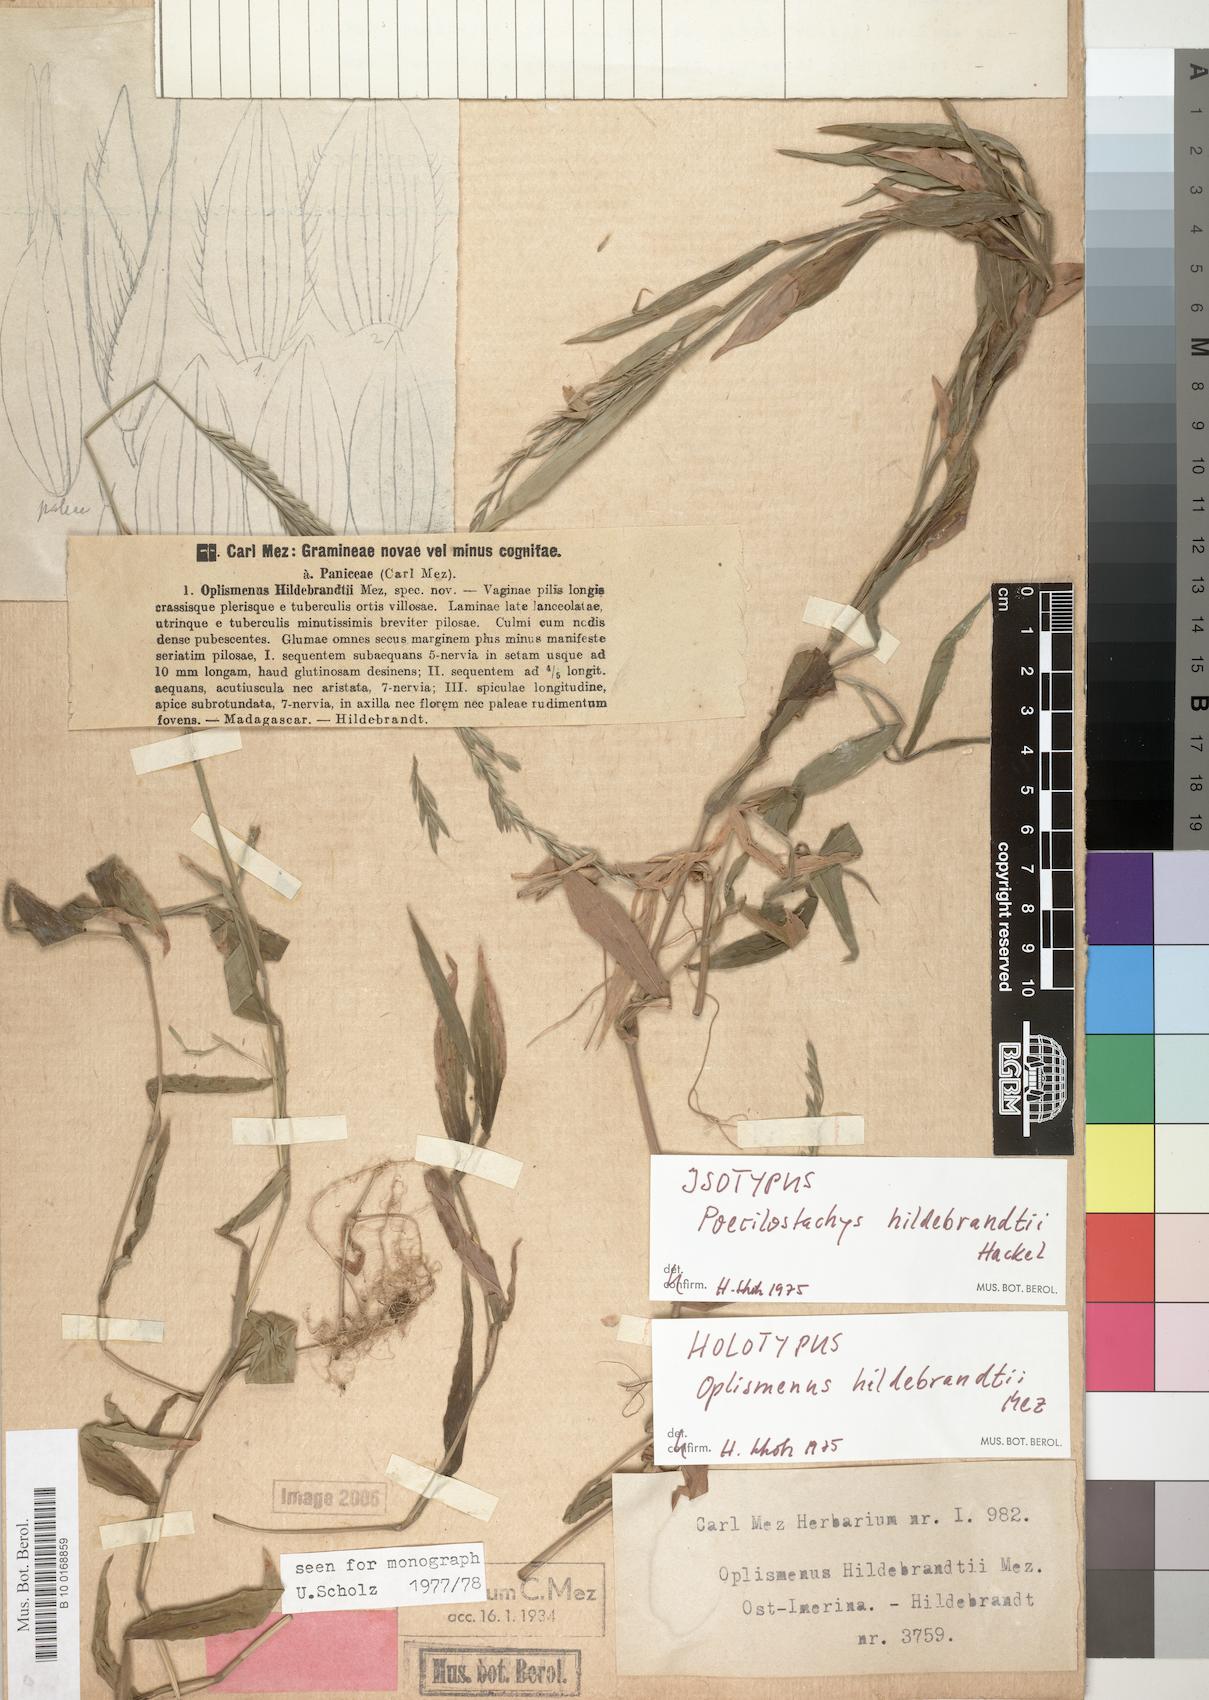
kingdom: Plantae
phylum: Tracheophyta
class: Liliopsida
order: Poales
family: Poaceae
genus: Poecilostachys
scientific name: Poecilostachys hildebrandtii
